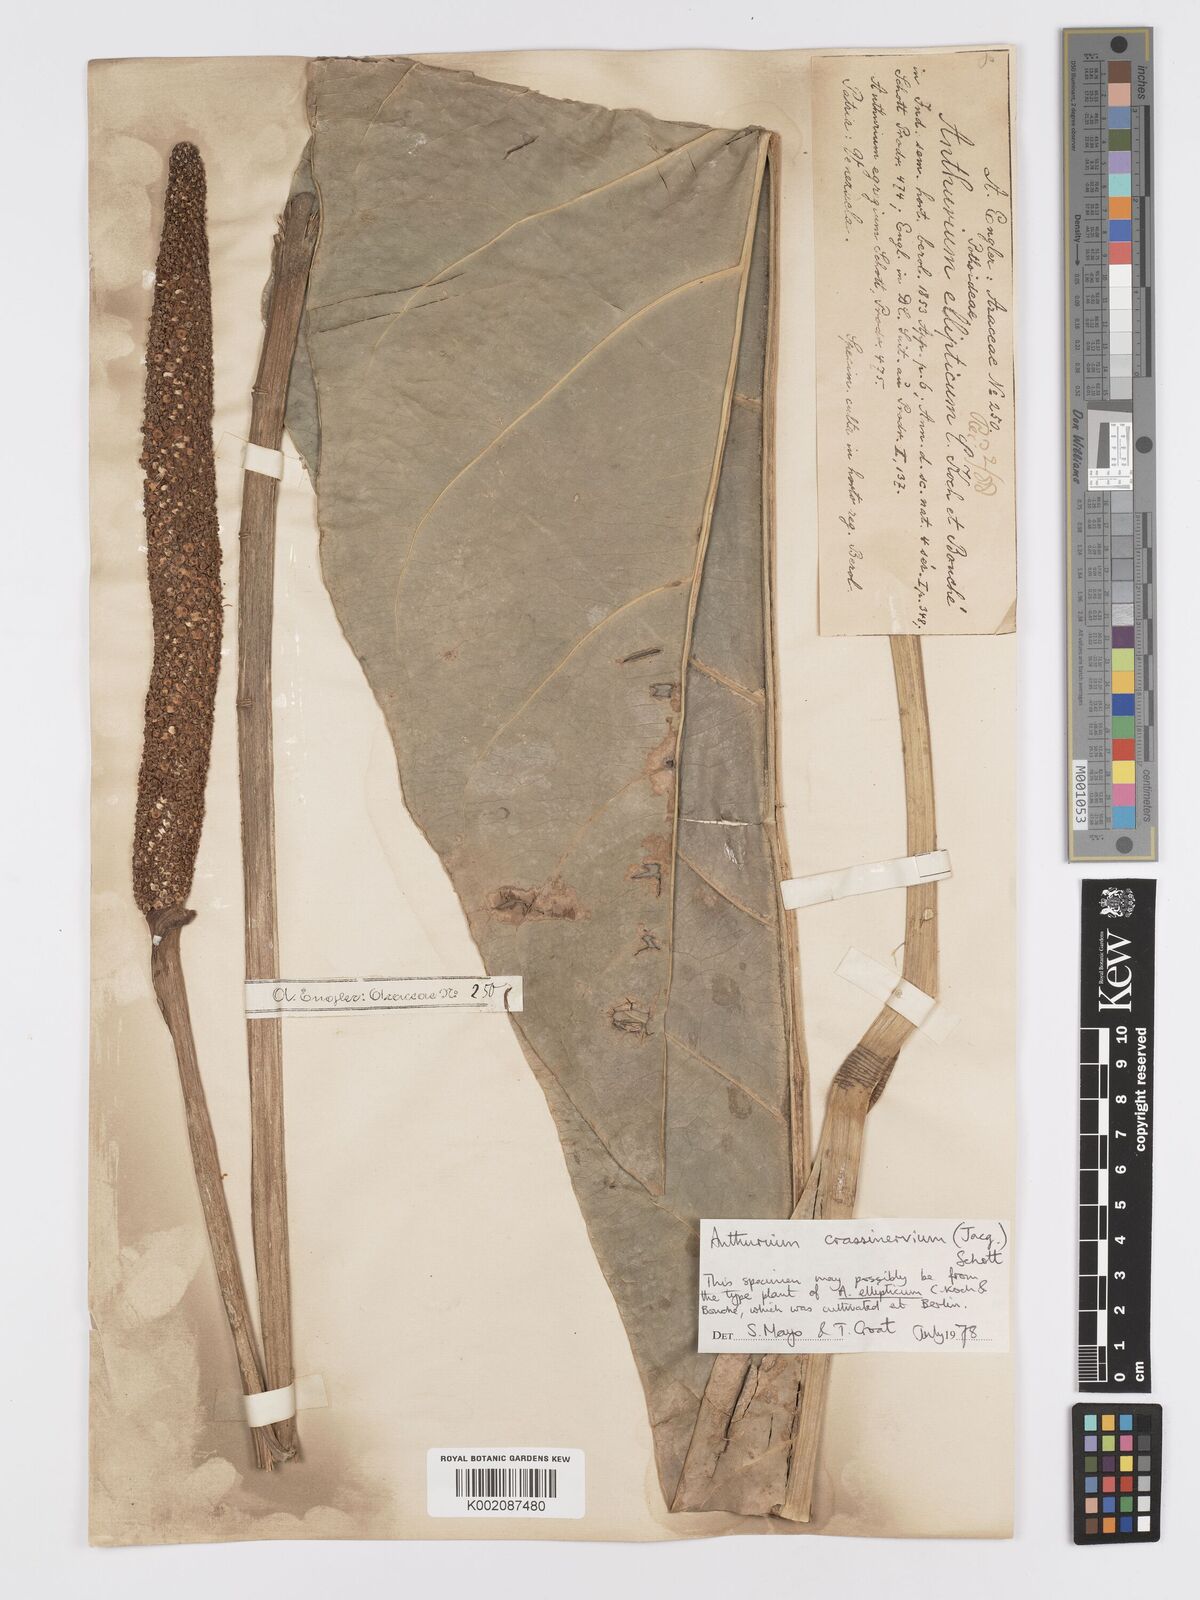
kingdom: Plantae
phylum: Tracheophyta
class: Liliopsida
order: Alismatales
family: Araceae
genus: Anthurium
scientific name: Anthurium crassinervium
